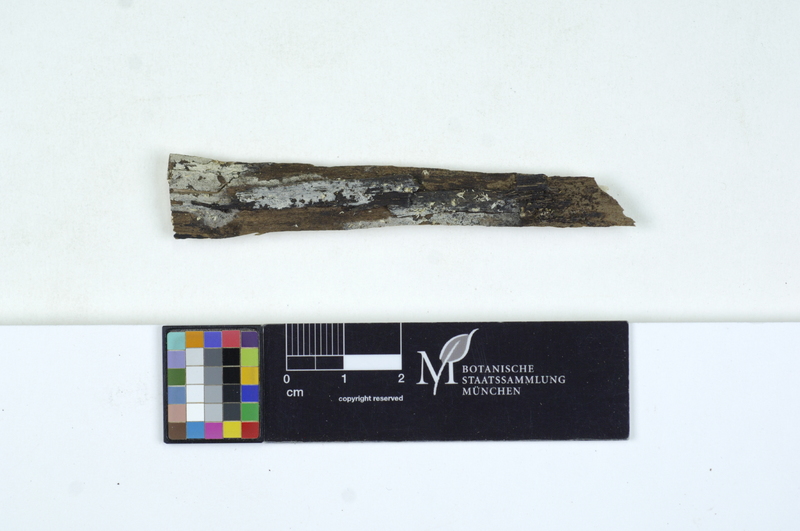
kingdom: Fungi
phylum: Basidiomycota
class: Agaricomycetes
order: Cantharellales
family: Tulasnellaceae
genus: Tulasnella
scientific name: Tulasnella brinkmannii
